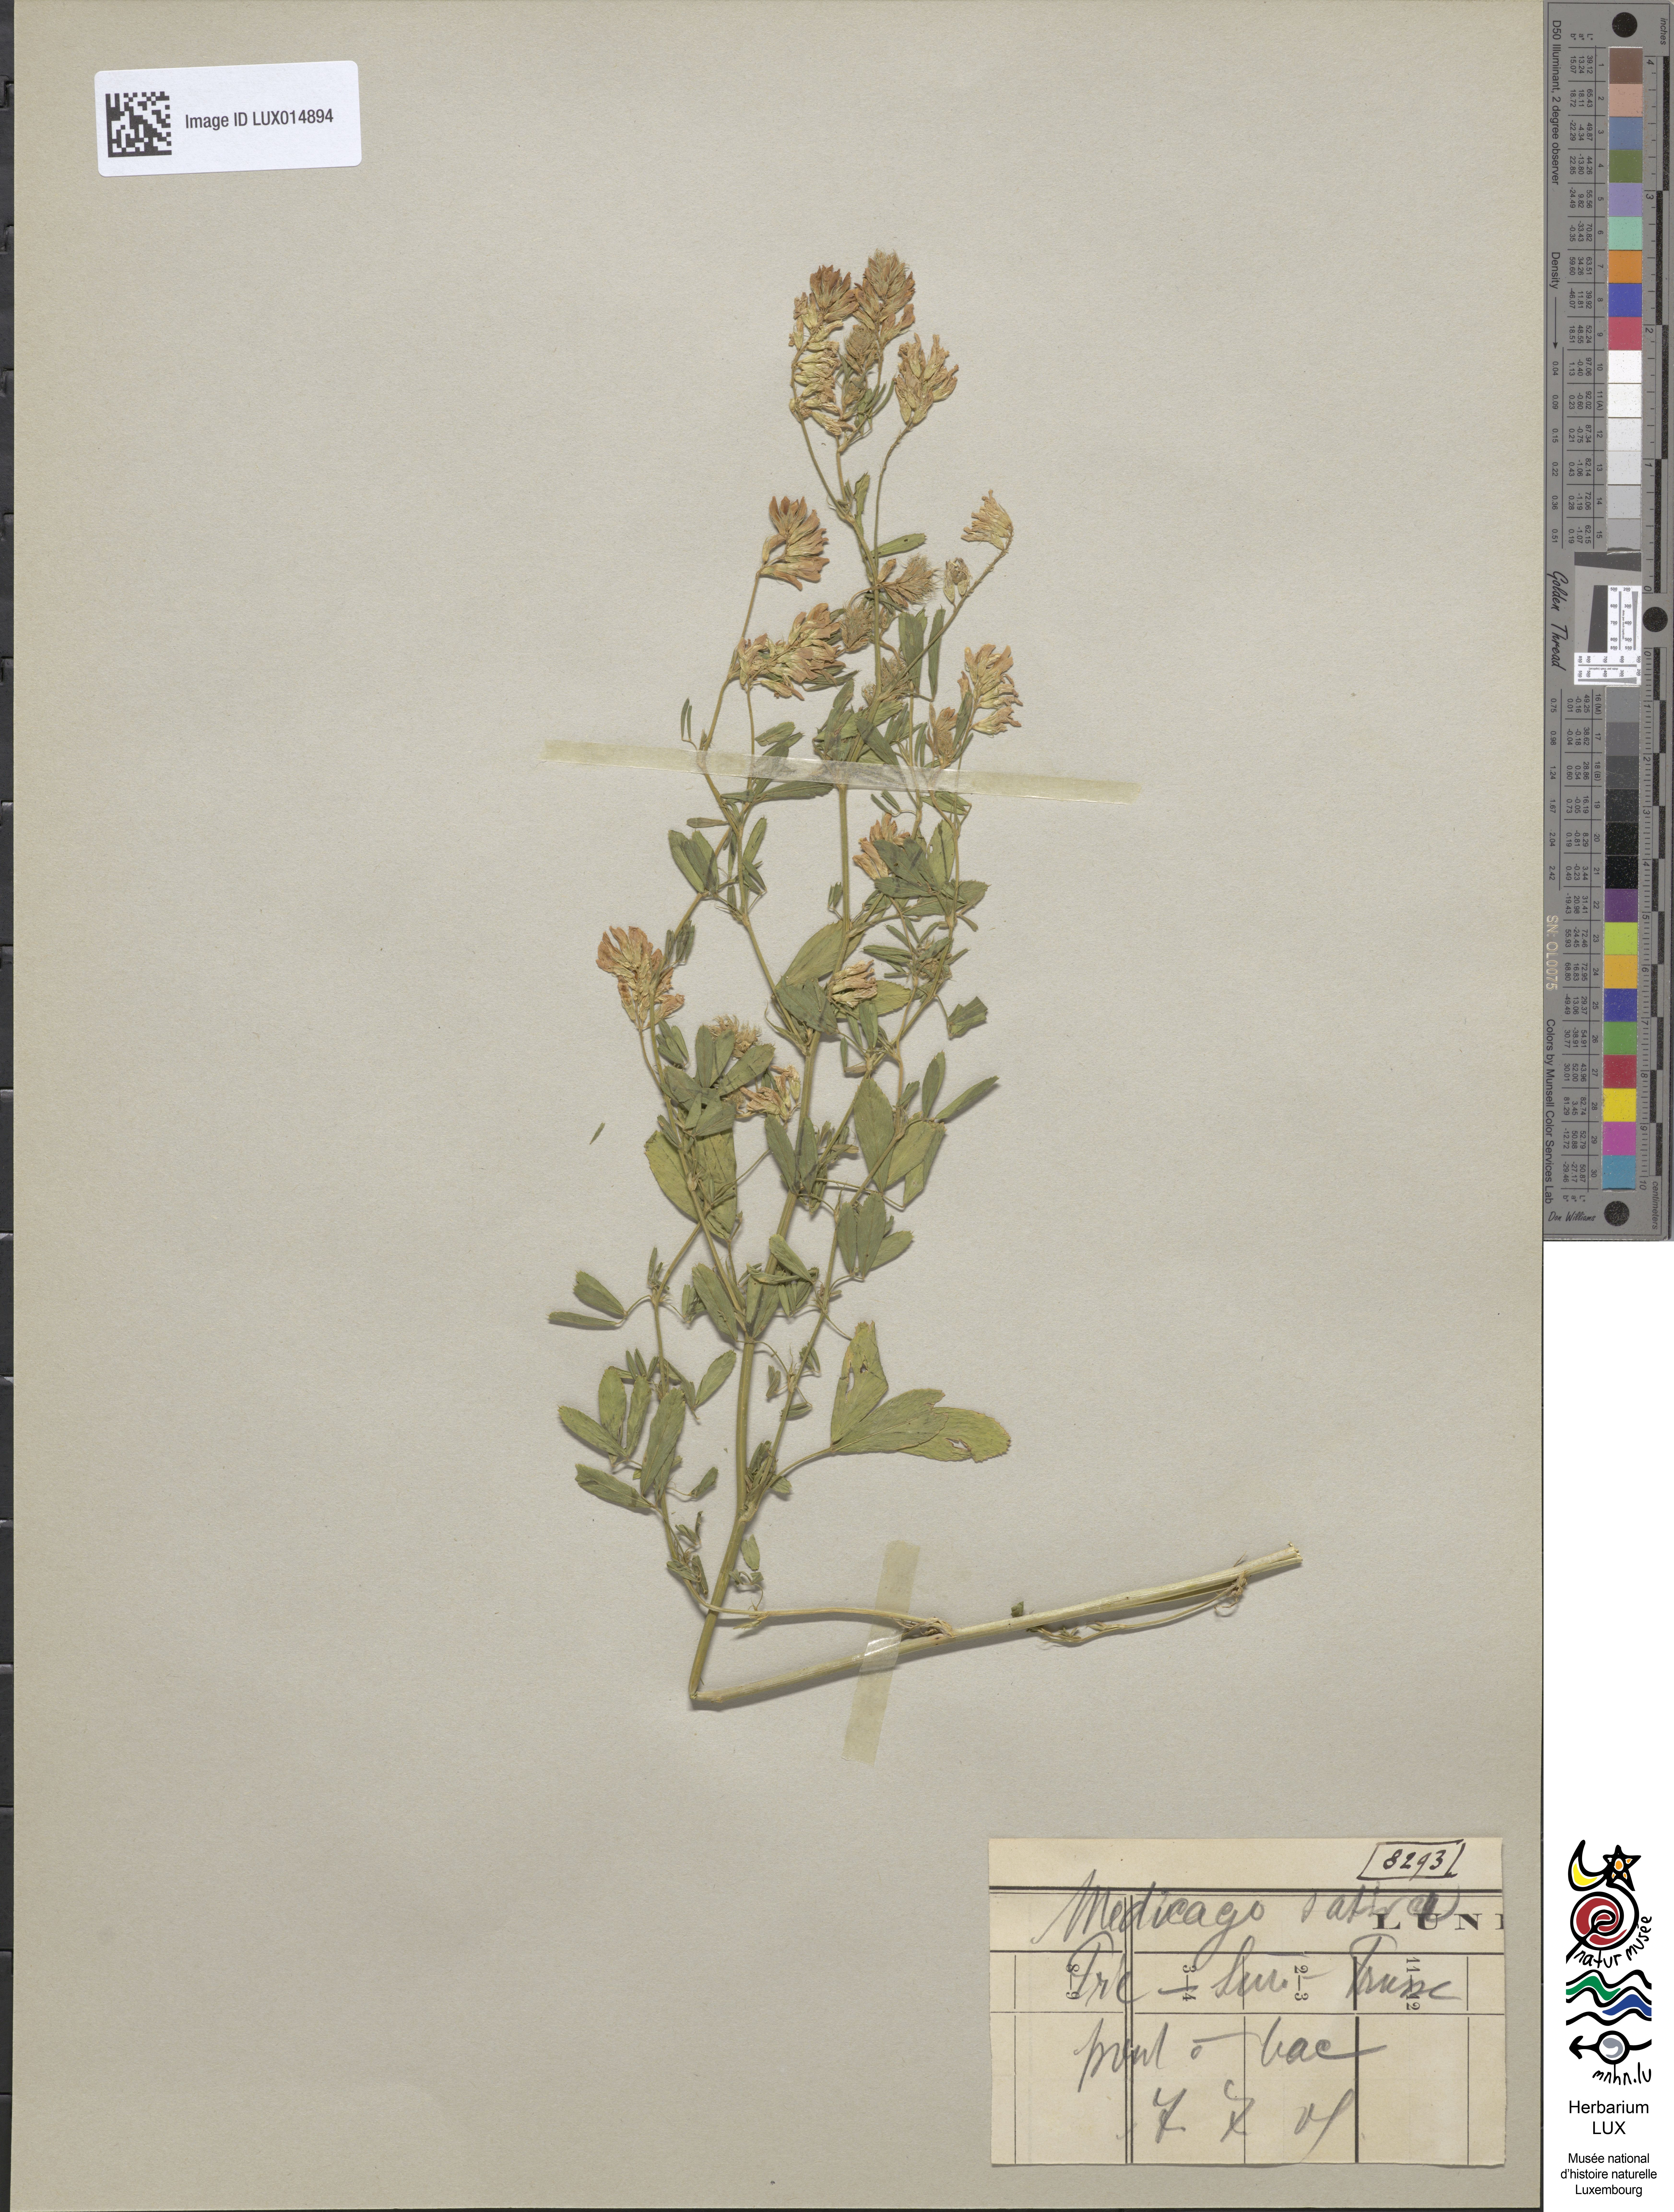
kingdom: Plantae
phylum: Tracheophyta
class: Magnoliopsida
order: Fabales
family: Fabaceae
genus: Medicago
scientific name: Medicago sativa
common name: Alfalfa
